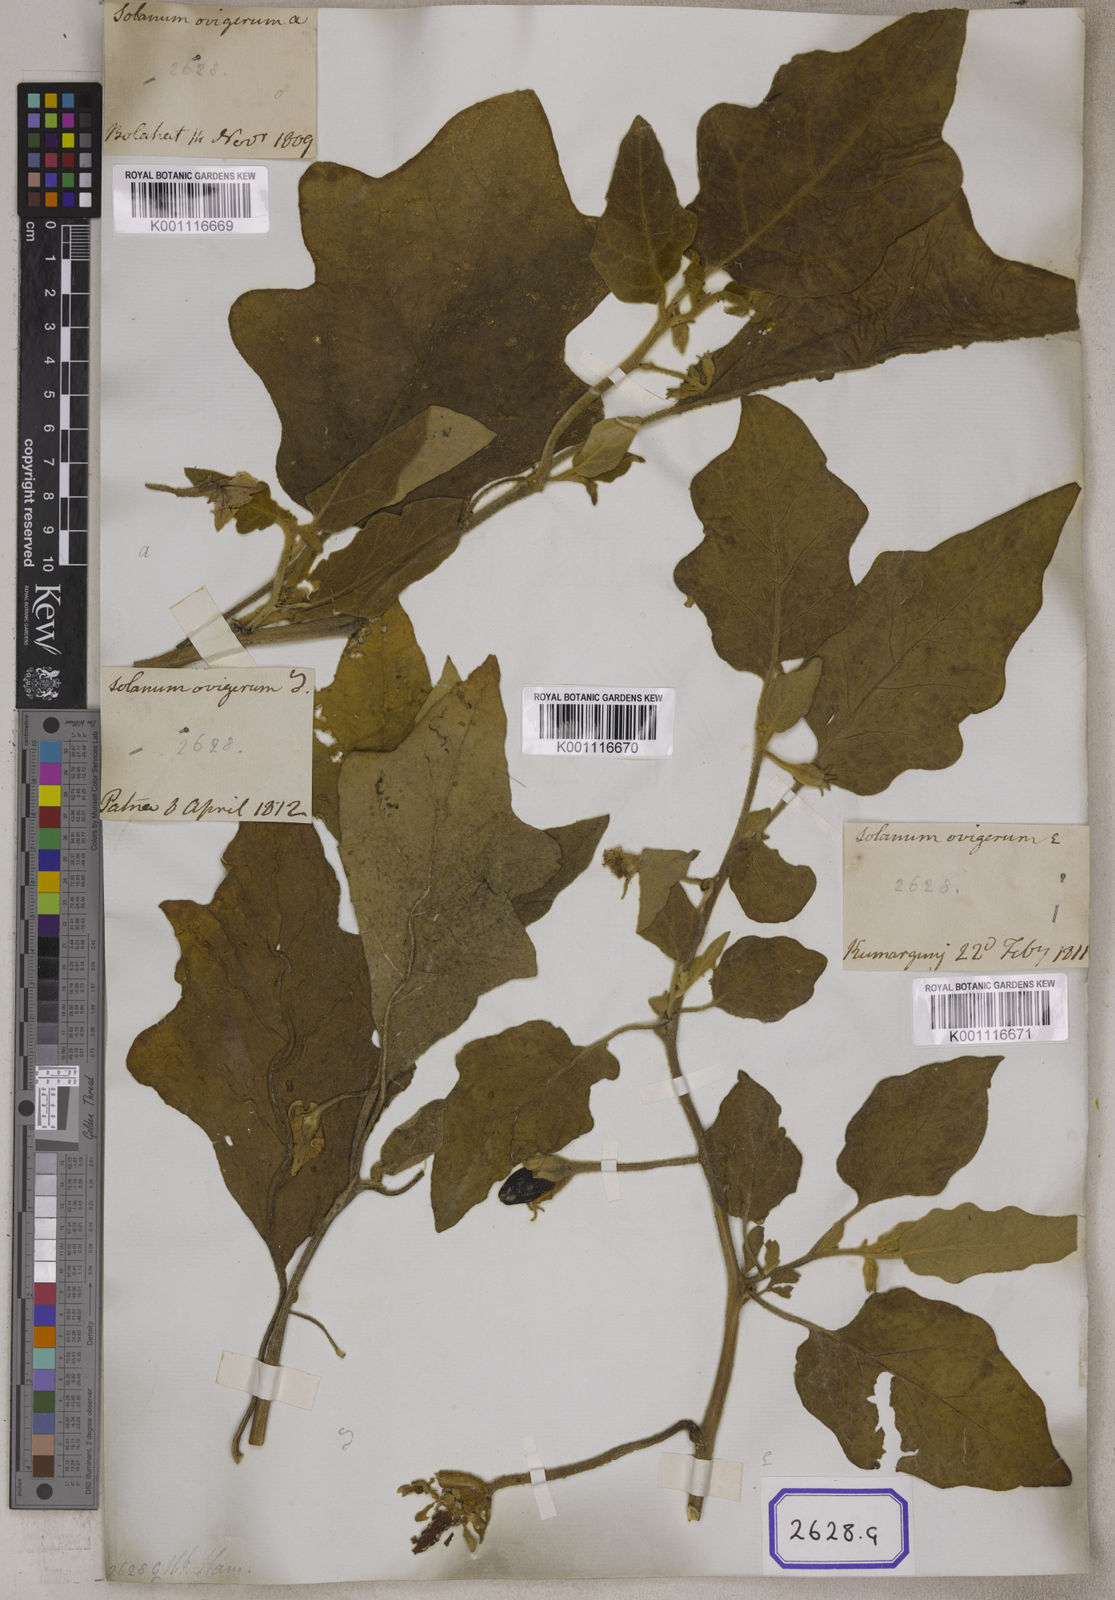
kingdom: Plantae
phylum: Tracheophyta
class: Magnoliopsida
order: Solanales
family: Solanaceae
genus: Solanum
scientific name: Solanum melongena
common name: Eggplant
